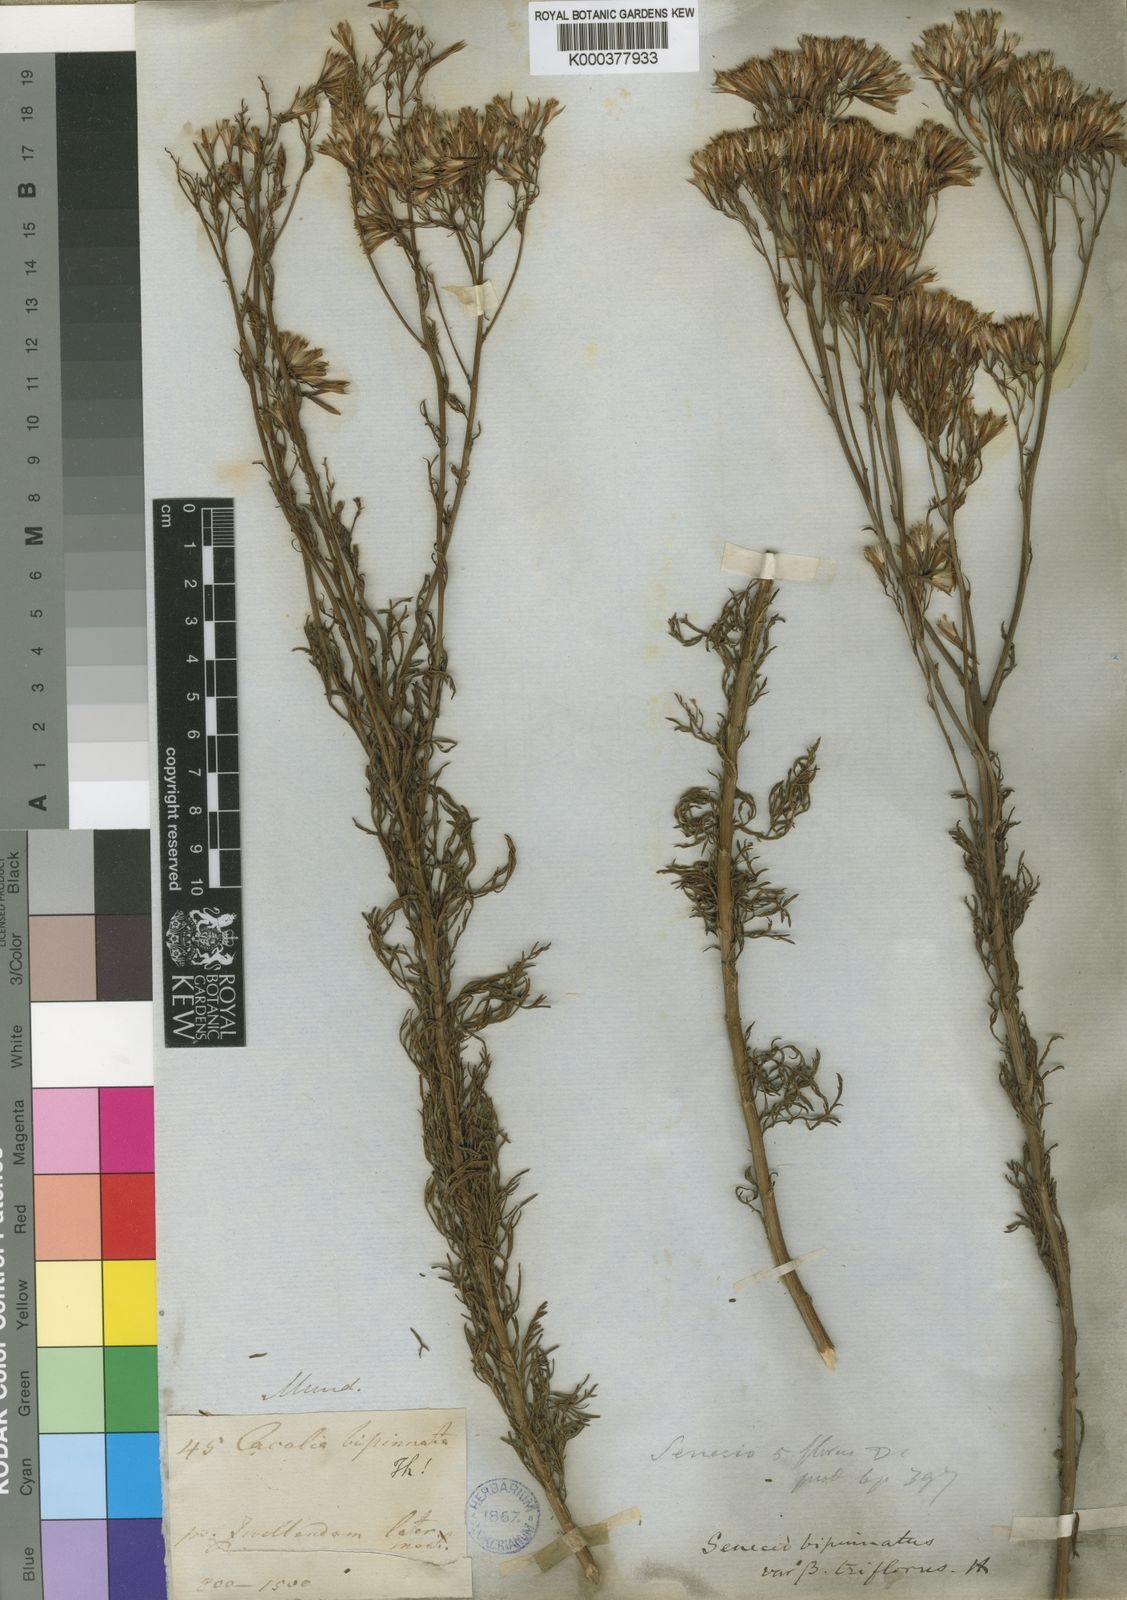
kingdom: Plantae
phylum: Tracheophyta
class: Magnoliopsida
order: Asterales
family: Asteraceae
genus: Senecio
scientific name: Senecio bipinnatus
